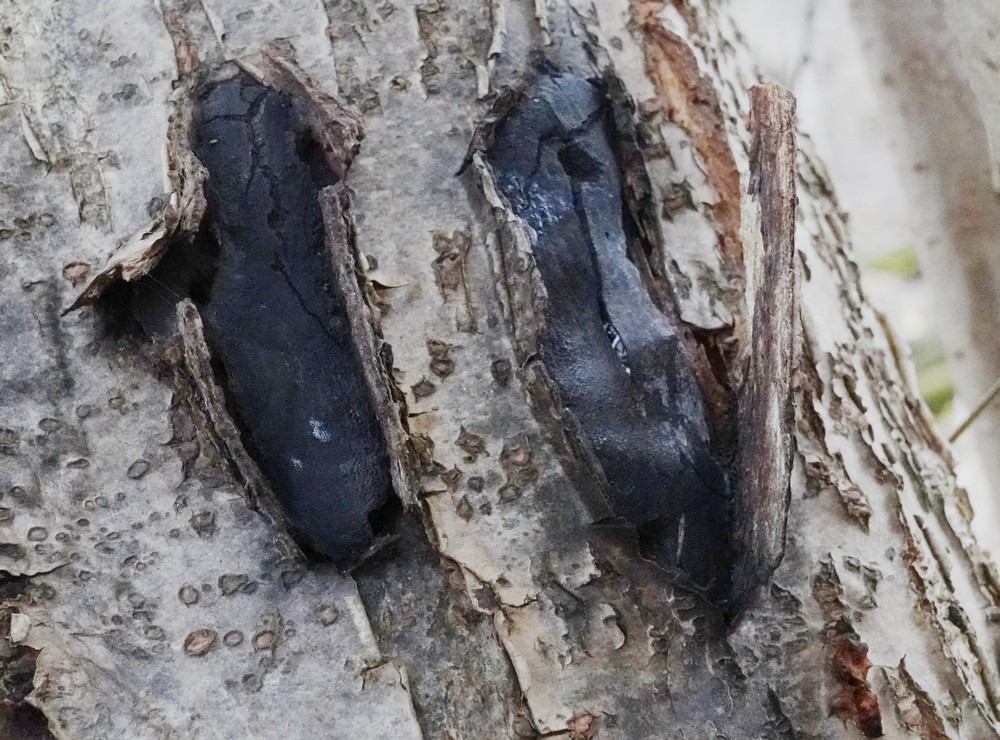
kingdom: Fungi
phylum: Ascomycota
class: Sordariomycetes
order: Boliniales
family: Boliniaceae
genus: Camarops
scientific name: Camarops polysperma
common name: elle-kulsnegl
